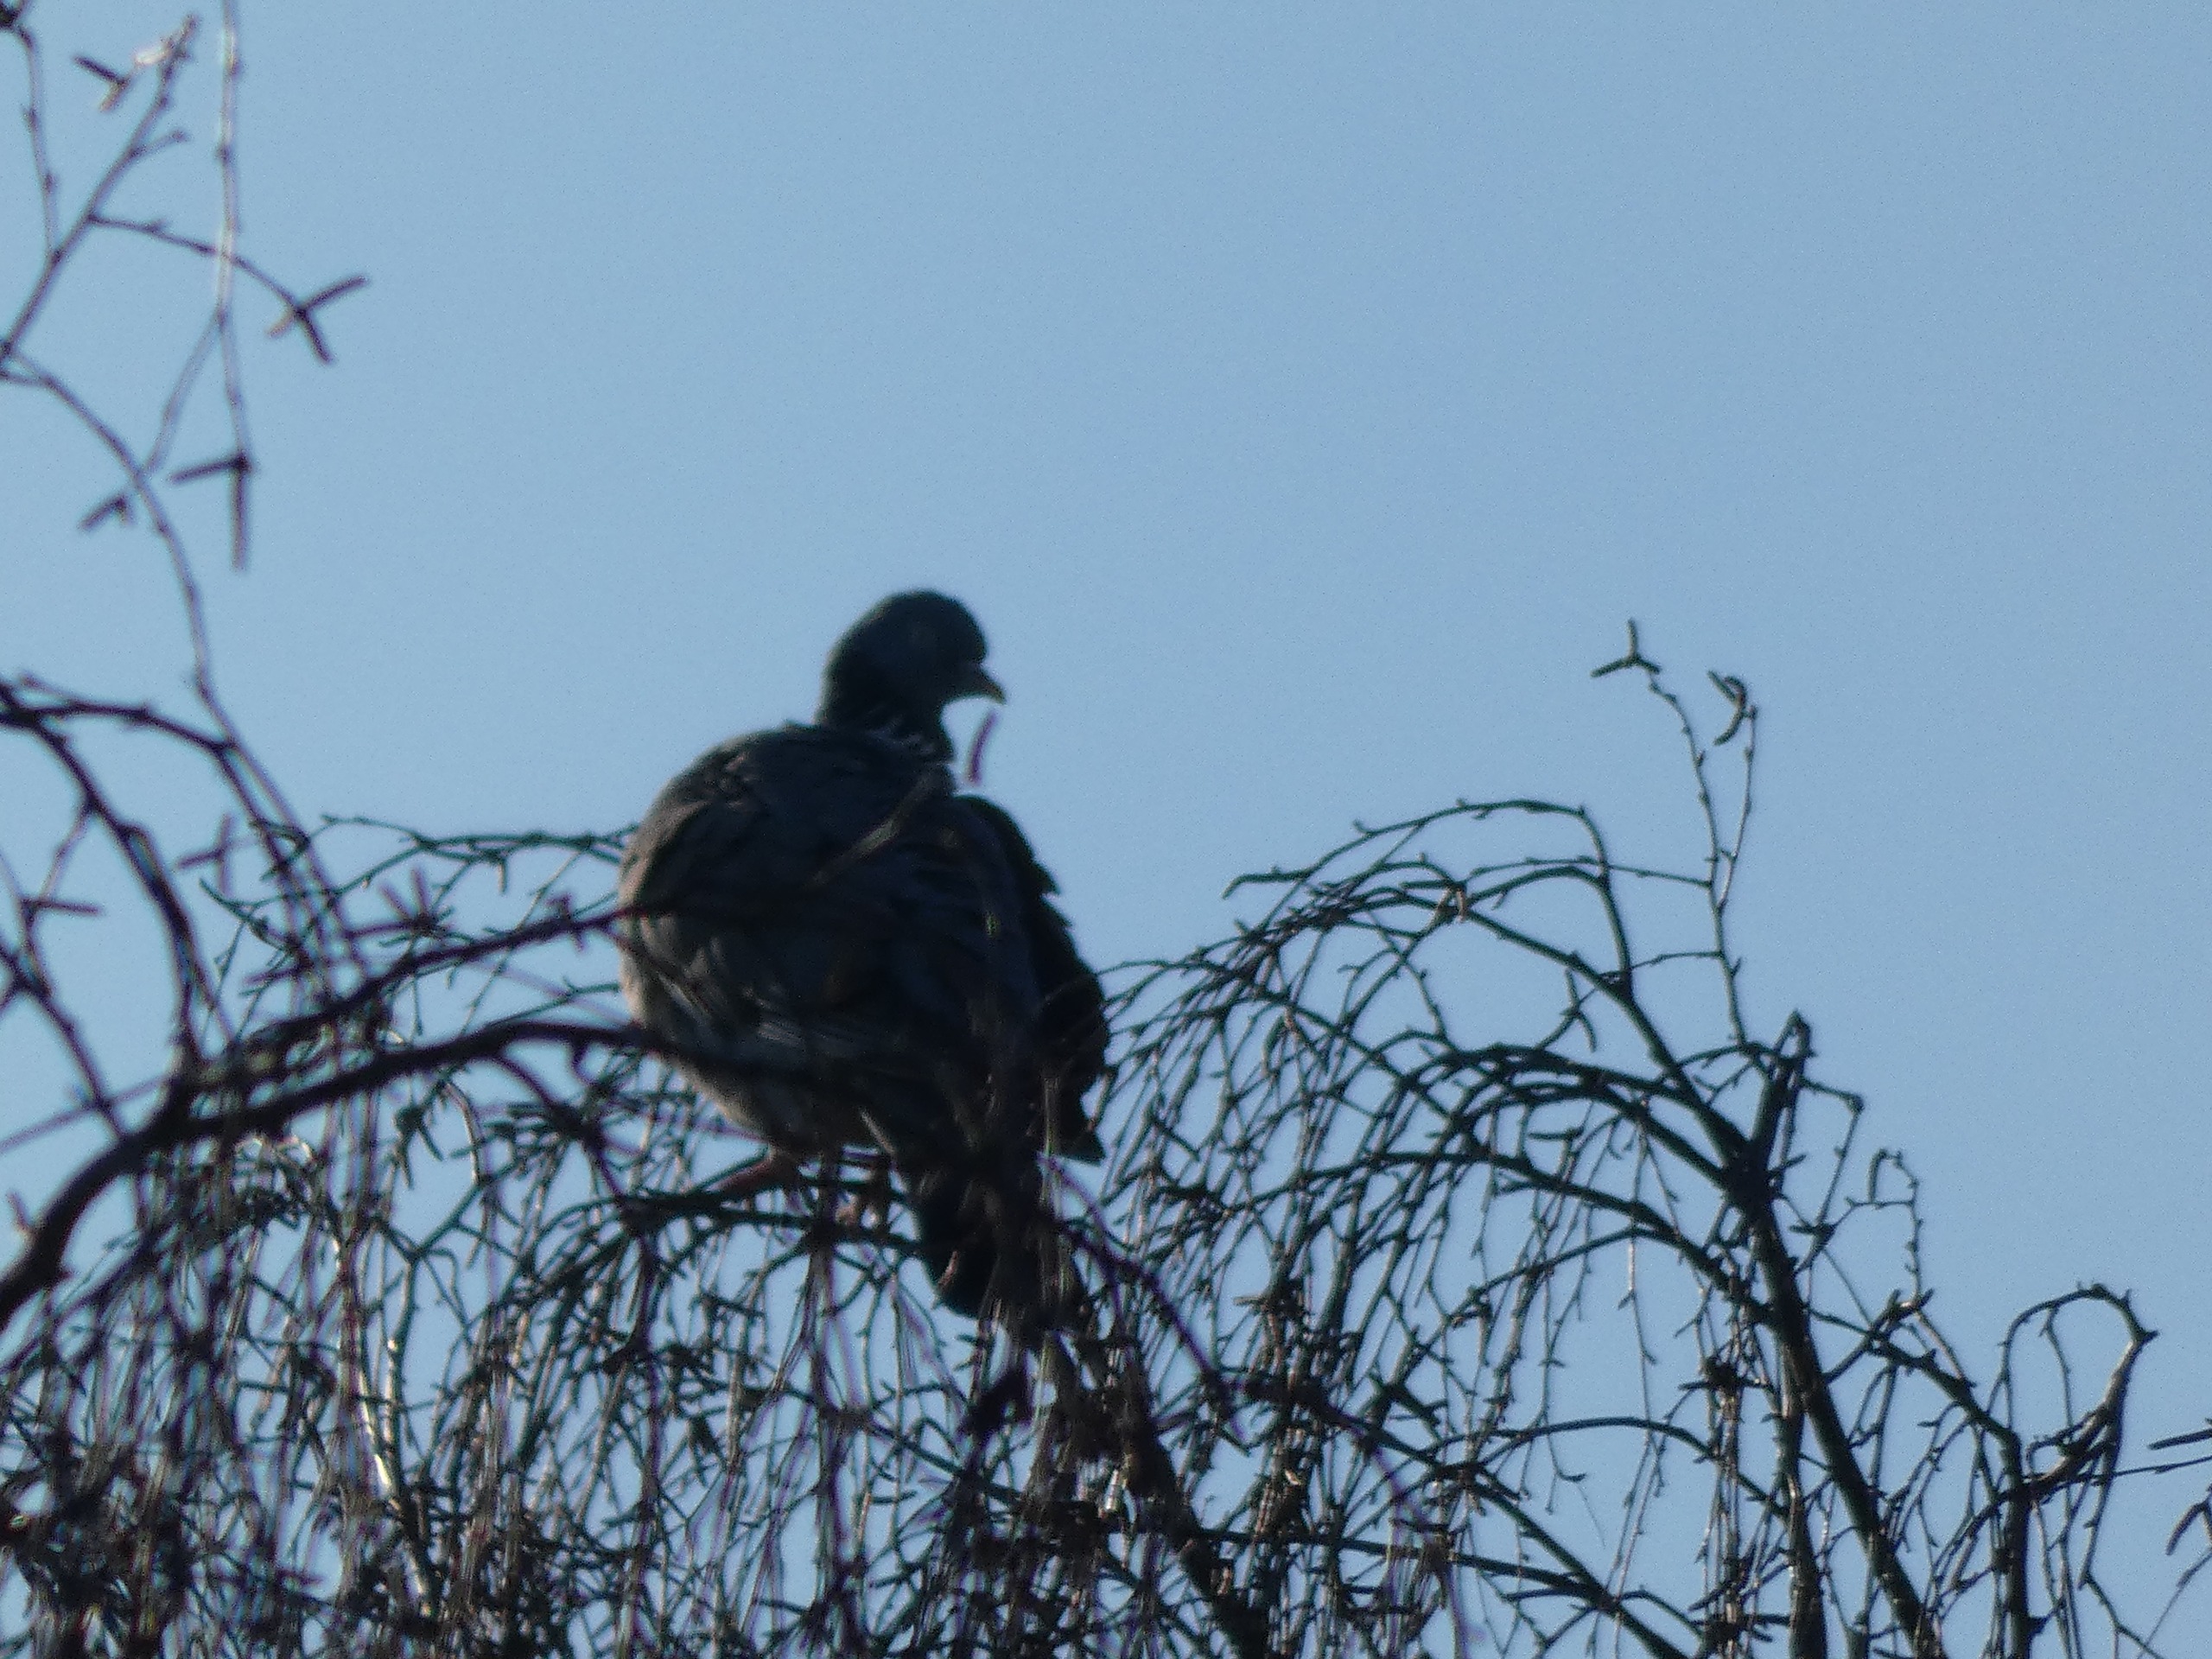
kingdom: Animalia
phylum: Chordata
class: Aves
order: Columbiformes
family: Columbidae
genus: Columba
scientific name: Columba palumbus
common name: Ringdue
